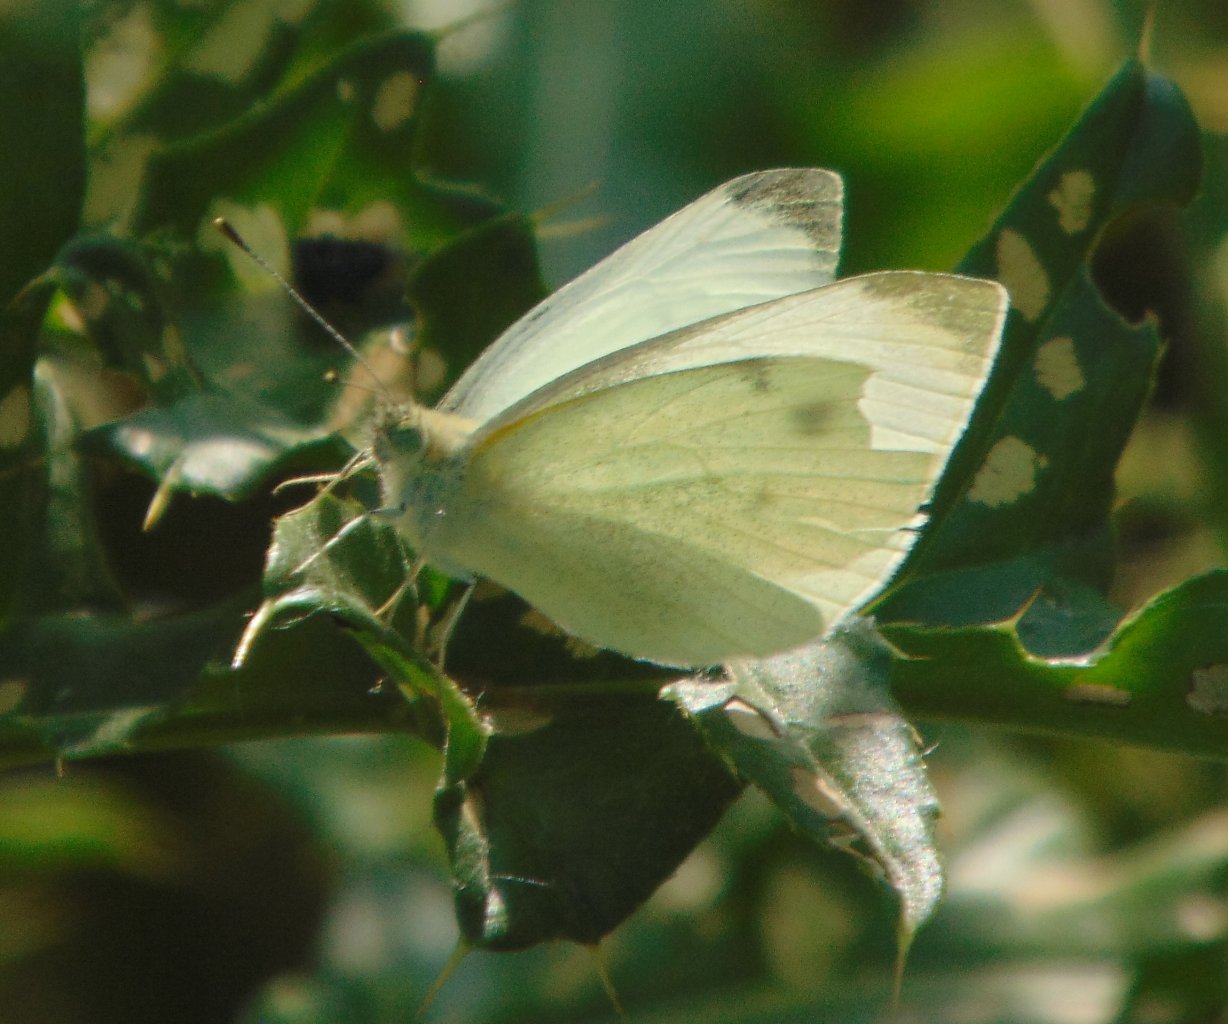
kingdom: Animalia
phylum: Arthropoda
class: Insecta
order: Lepidoptera
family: Pieridae
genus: Pieris
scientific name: Pieris rapae
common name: Cabbage White
